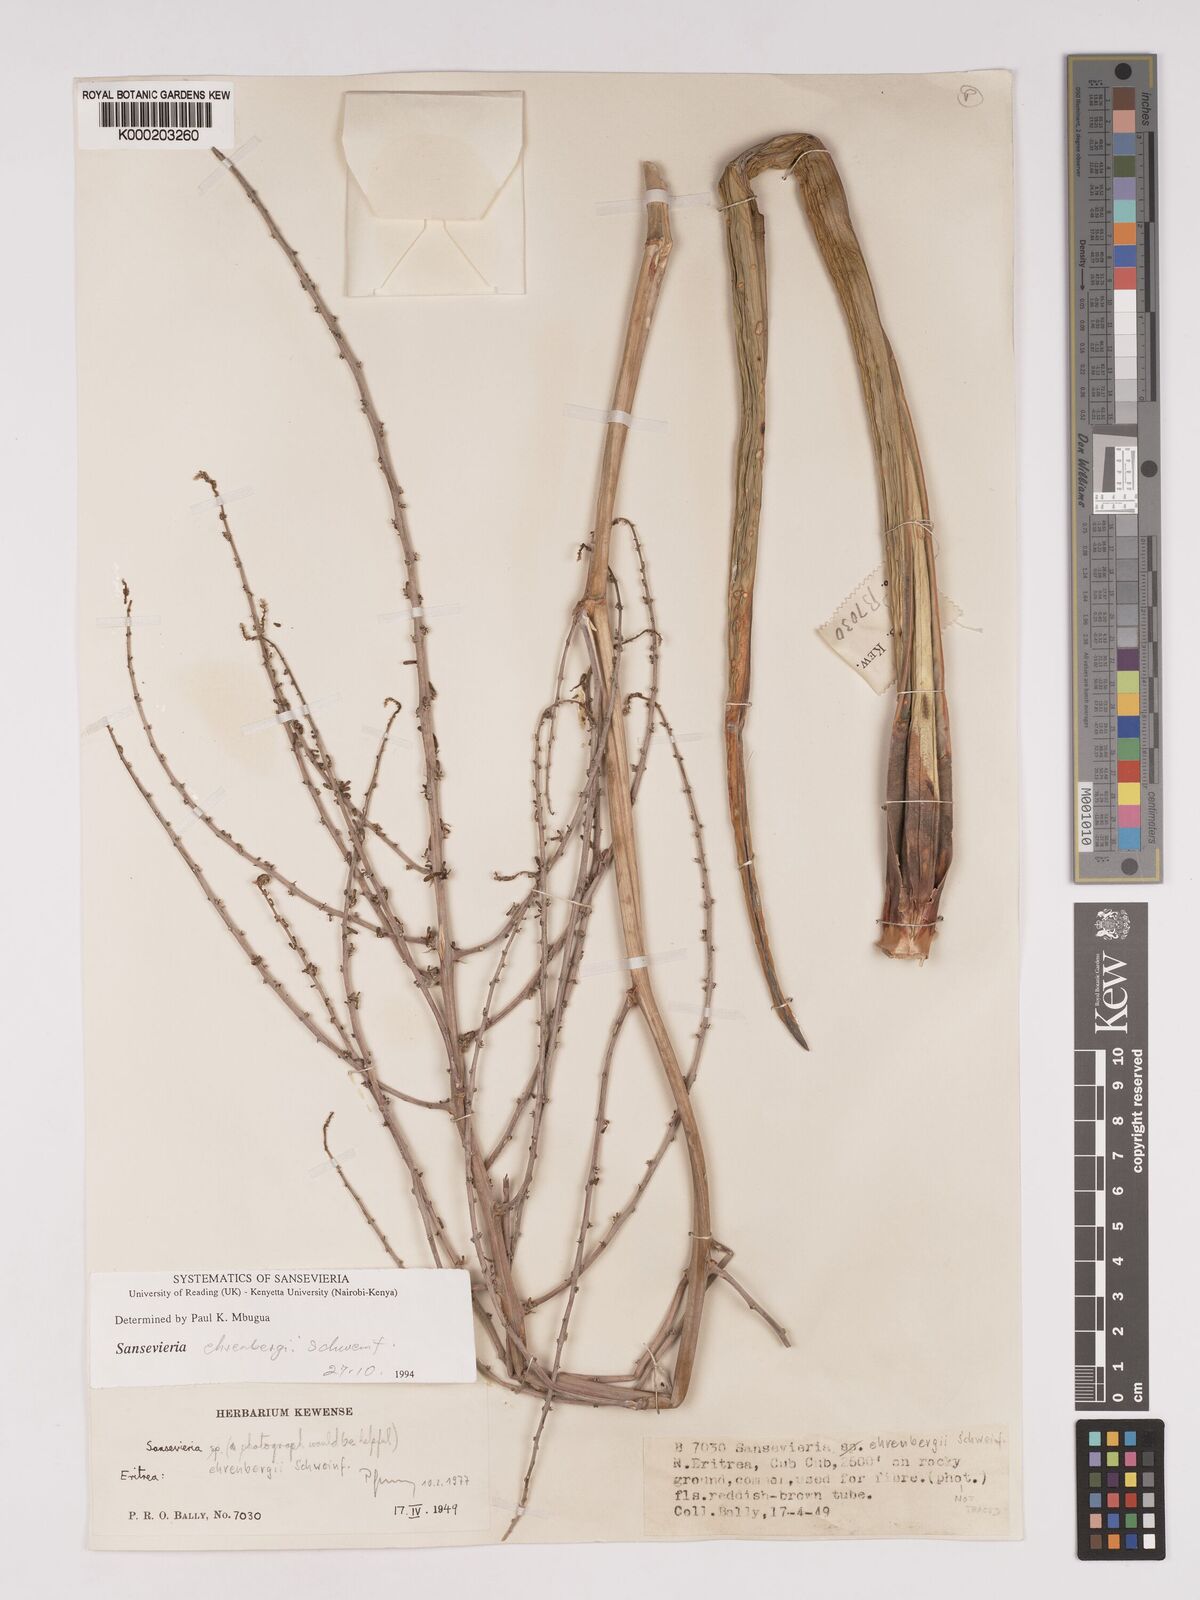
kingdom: Plantae
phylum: Tracheophyta
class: Liliopsida
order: Asparagales
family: Asparagaceae
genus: Dracaena
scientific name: Dracaena hanningtonii
